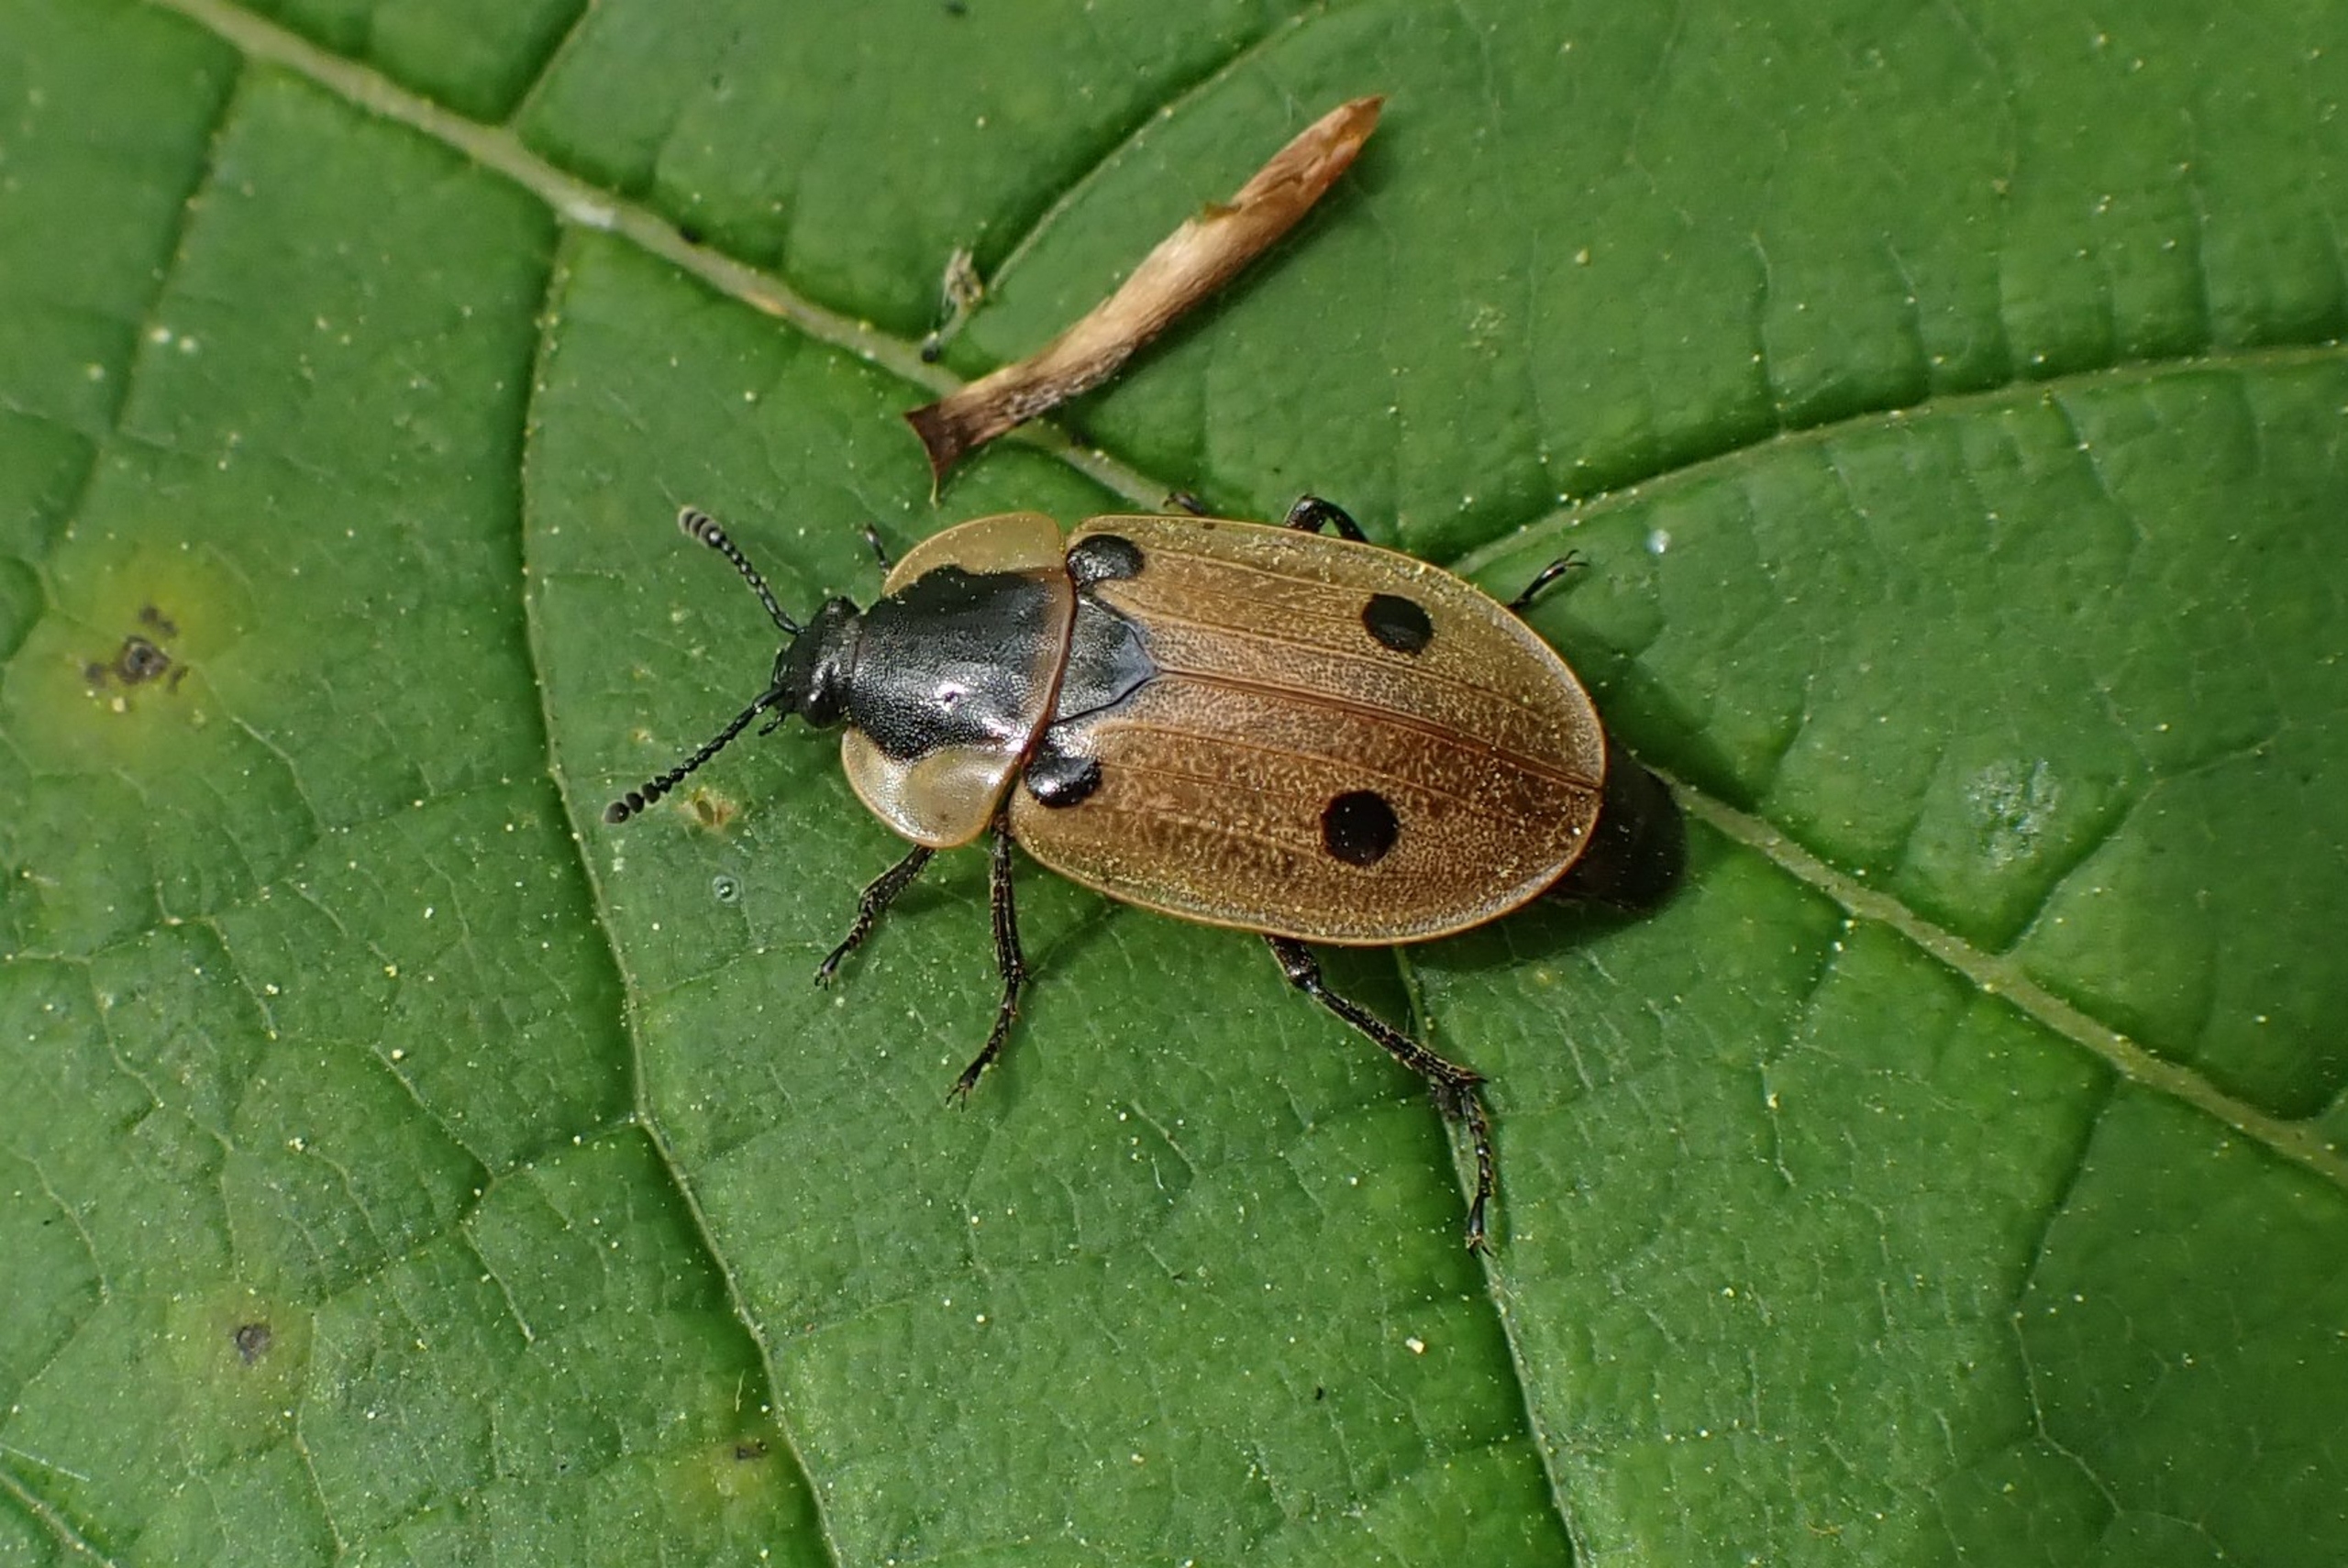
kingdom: Animalia
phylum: Arthropoda
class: Insecta
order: Coleoptera
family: Staphylinidae
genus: Dendroxena
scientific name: Dendroxena quadrimaculata
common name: Fireplettet ådselbille
